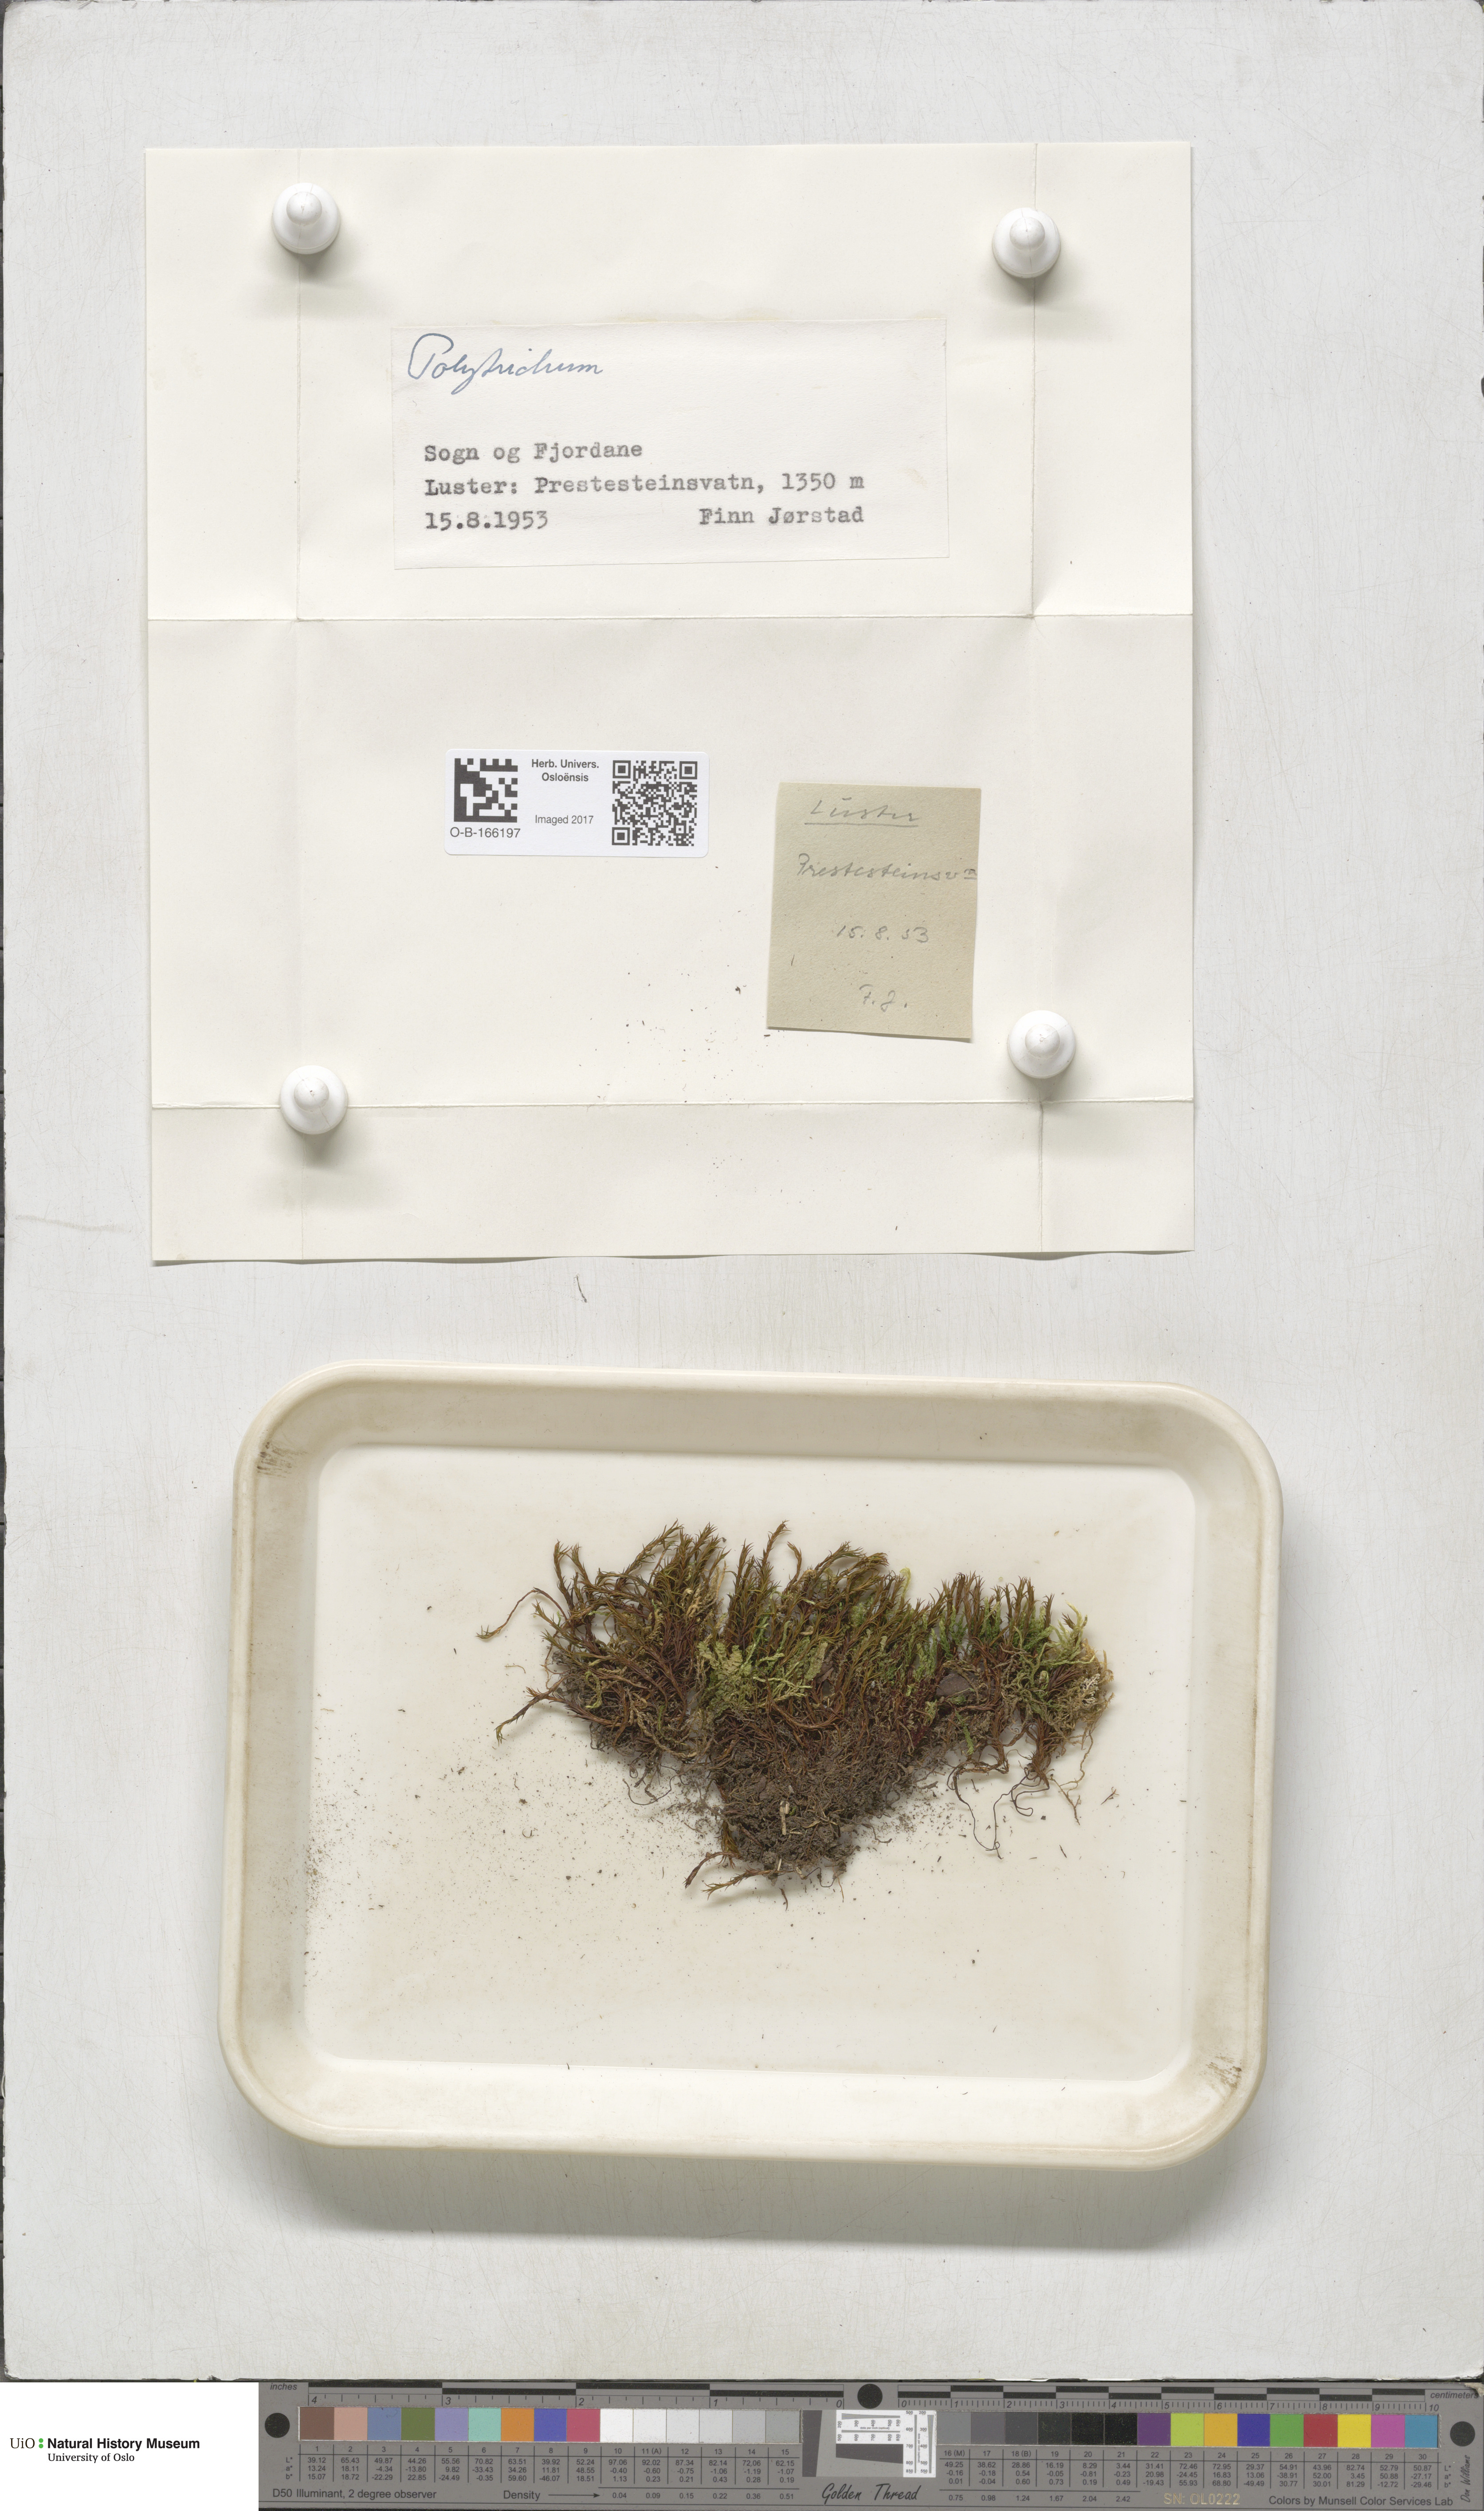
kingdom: Plantae
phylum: Bryophyta
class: Polytrichopsida
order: Polytrichales
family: Polytrichaceae
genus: Polytrichum
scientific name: Polytrichum
